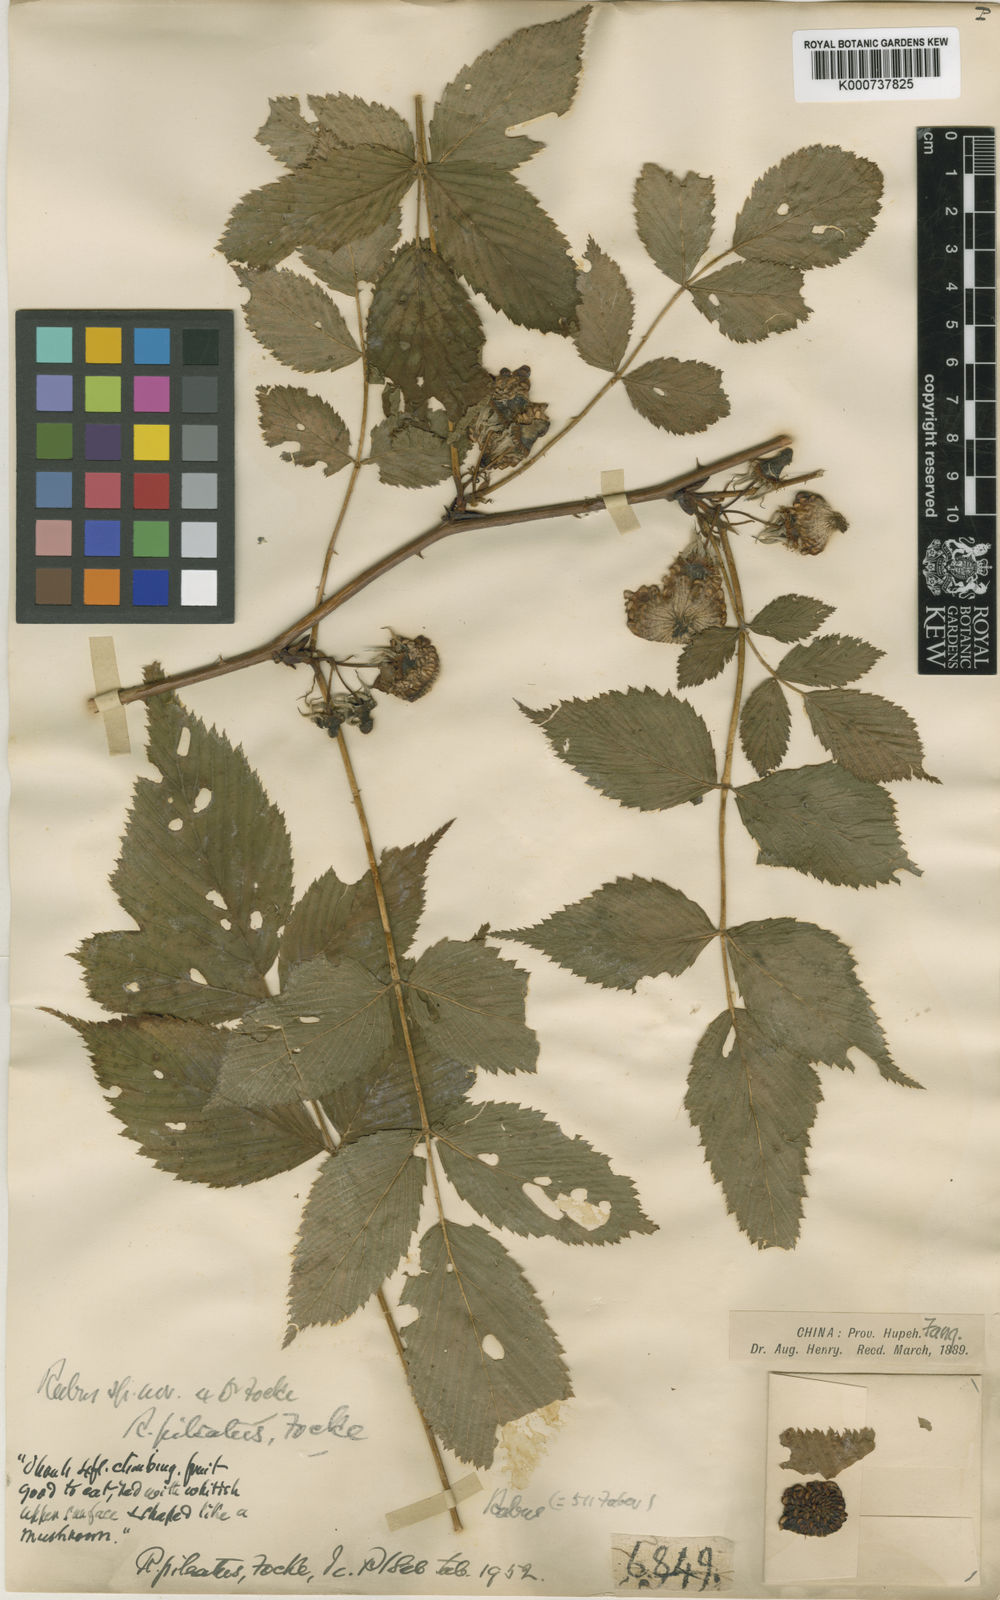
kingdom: Plantae
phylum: Tracheophyta
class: Magnoliopsida
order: Rosales
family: Rosaceae
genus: Rubus
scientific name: Rubus pileatus
